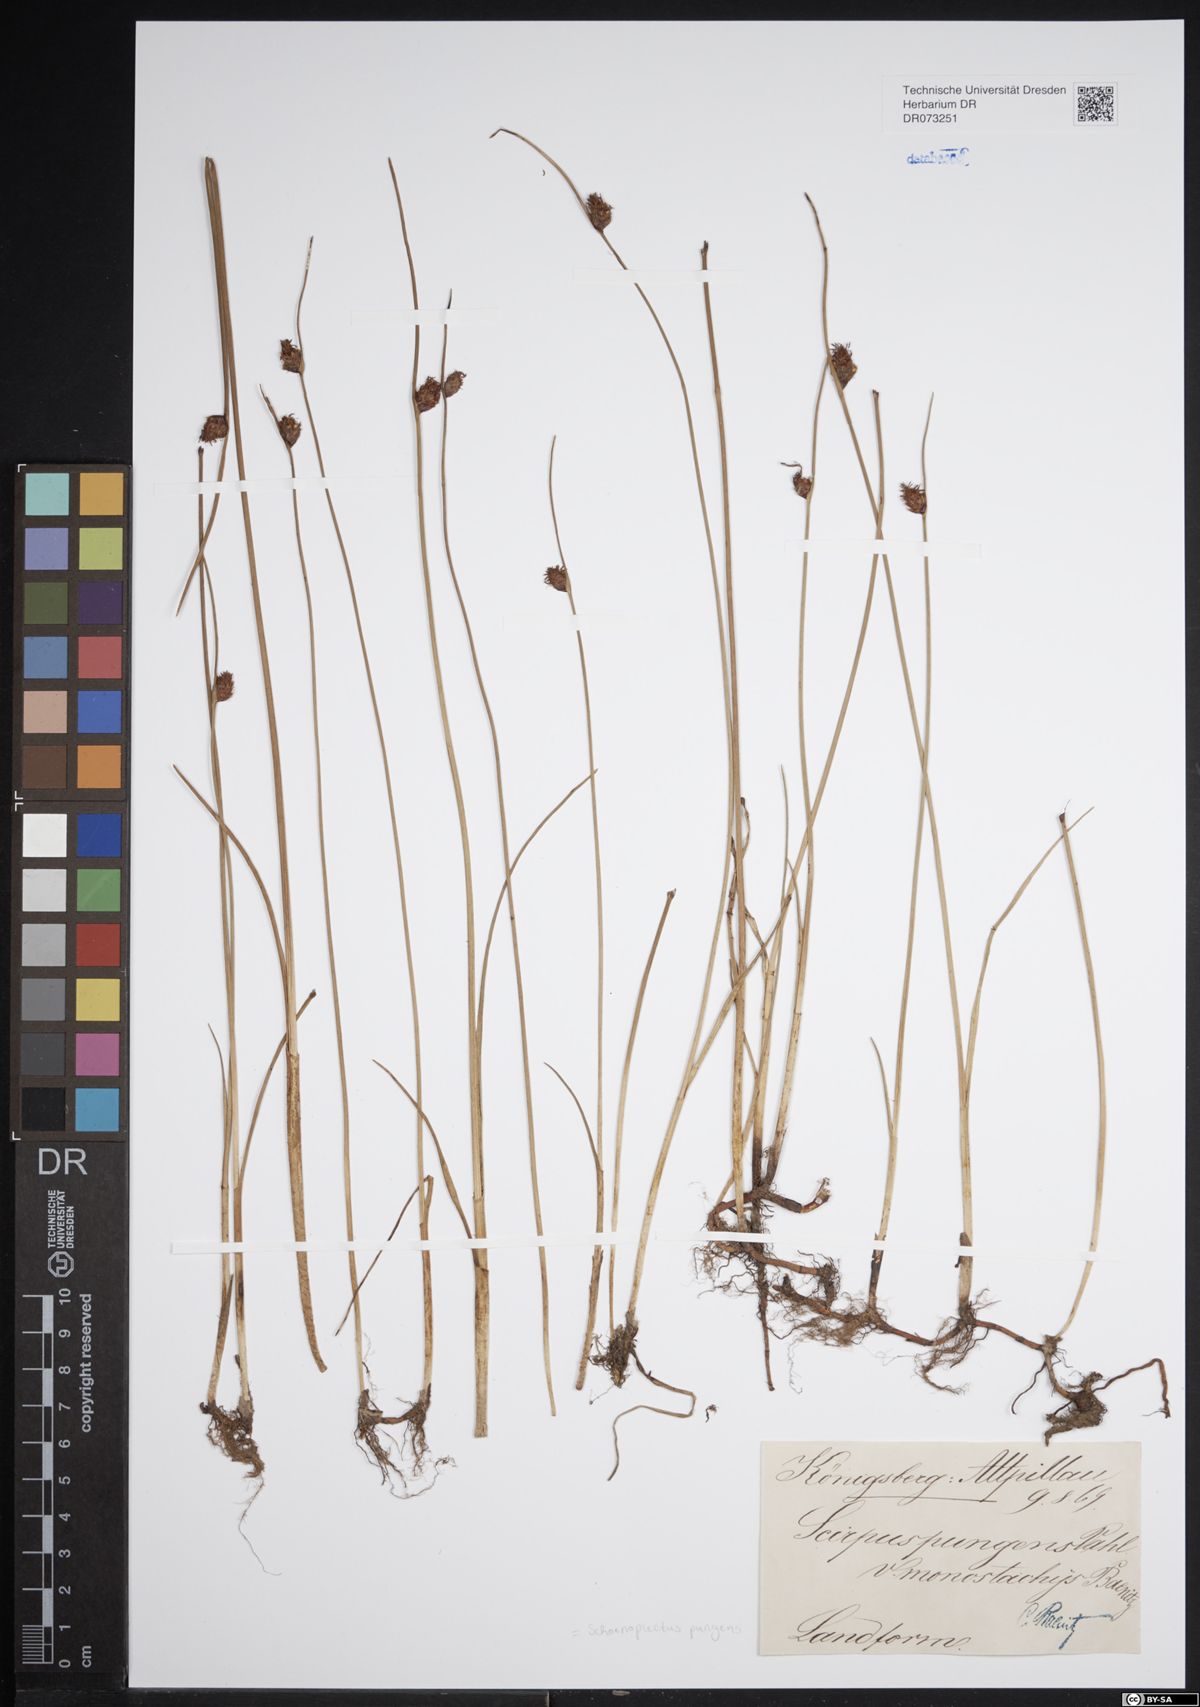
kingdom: Plantae
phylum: Tracheophyta
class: Liliopsida
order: Poales
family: Cyperaceae
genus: Schoenoplectus
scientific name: Schoenoplectus pungens
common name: Sharp club-rush
